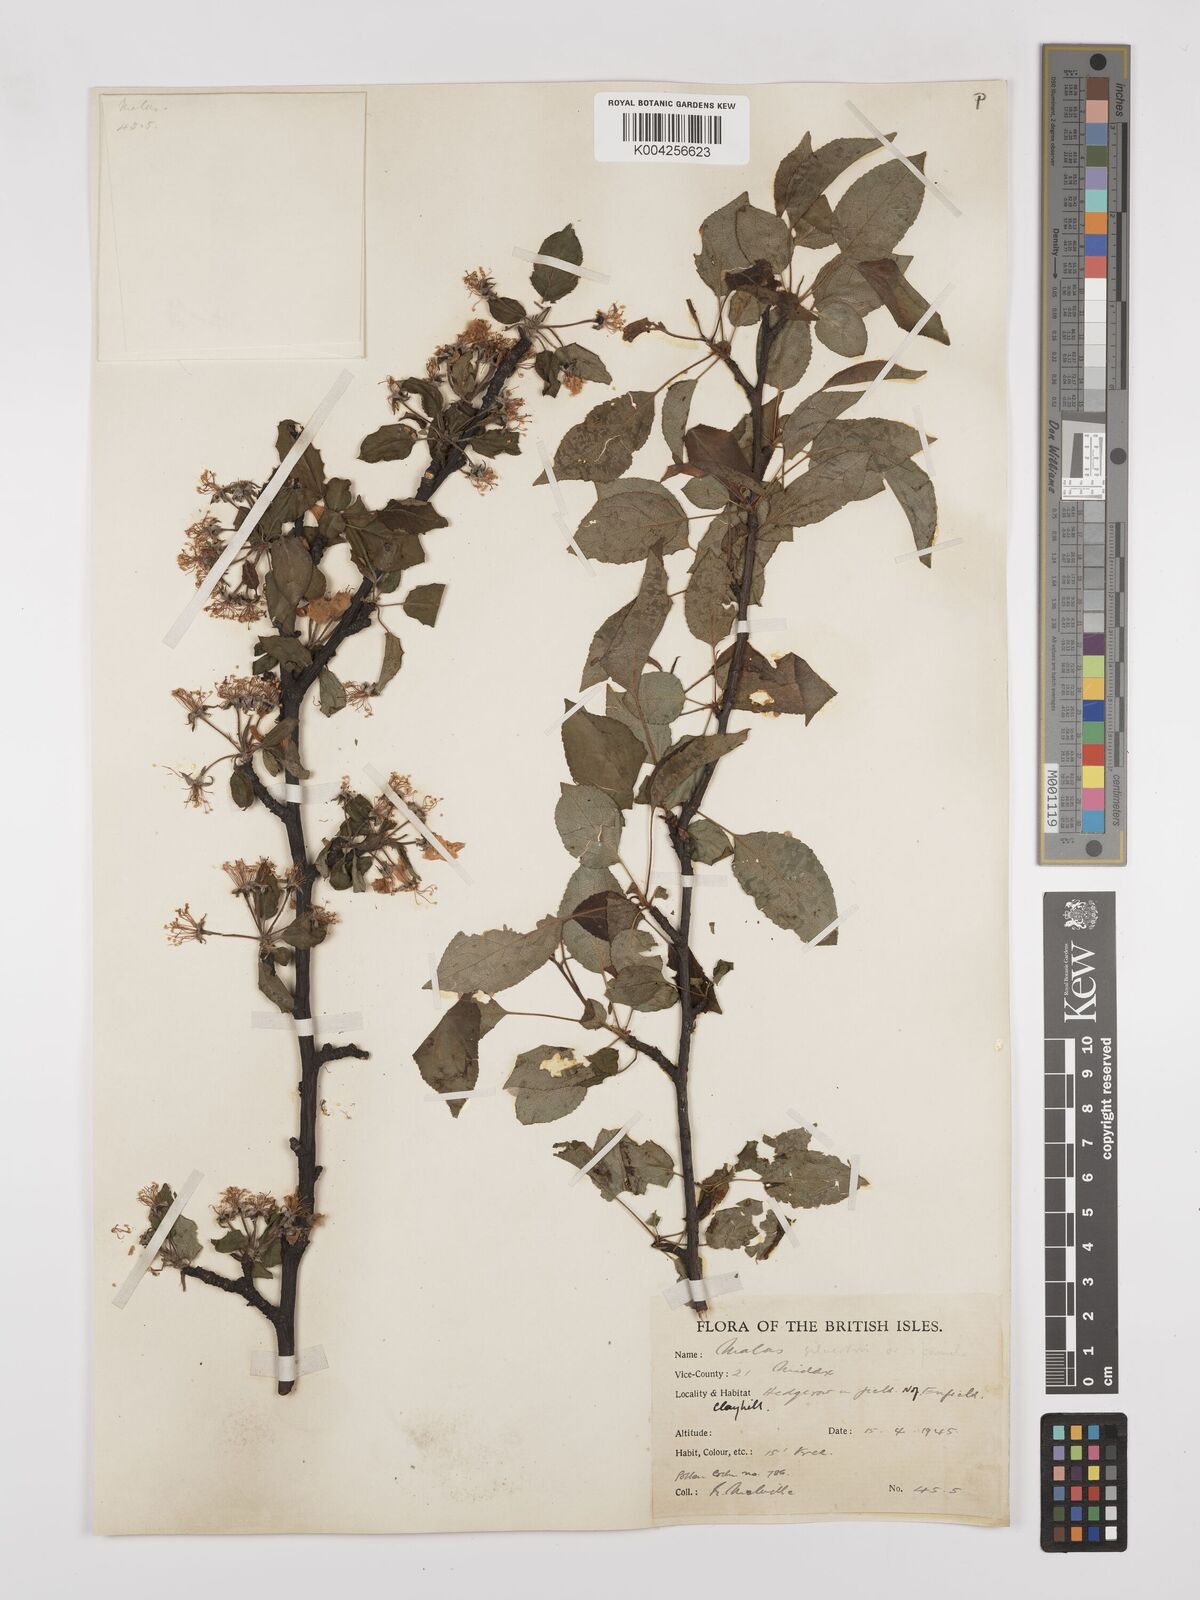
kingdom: Plantae
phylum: Tracheophyta
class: Magnoliopsida
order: Rosales
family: Rosaceae
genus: Malus
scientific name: Malus sylvestris
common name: Crab apple
